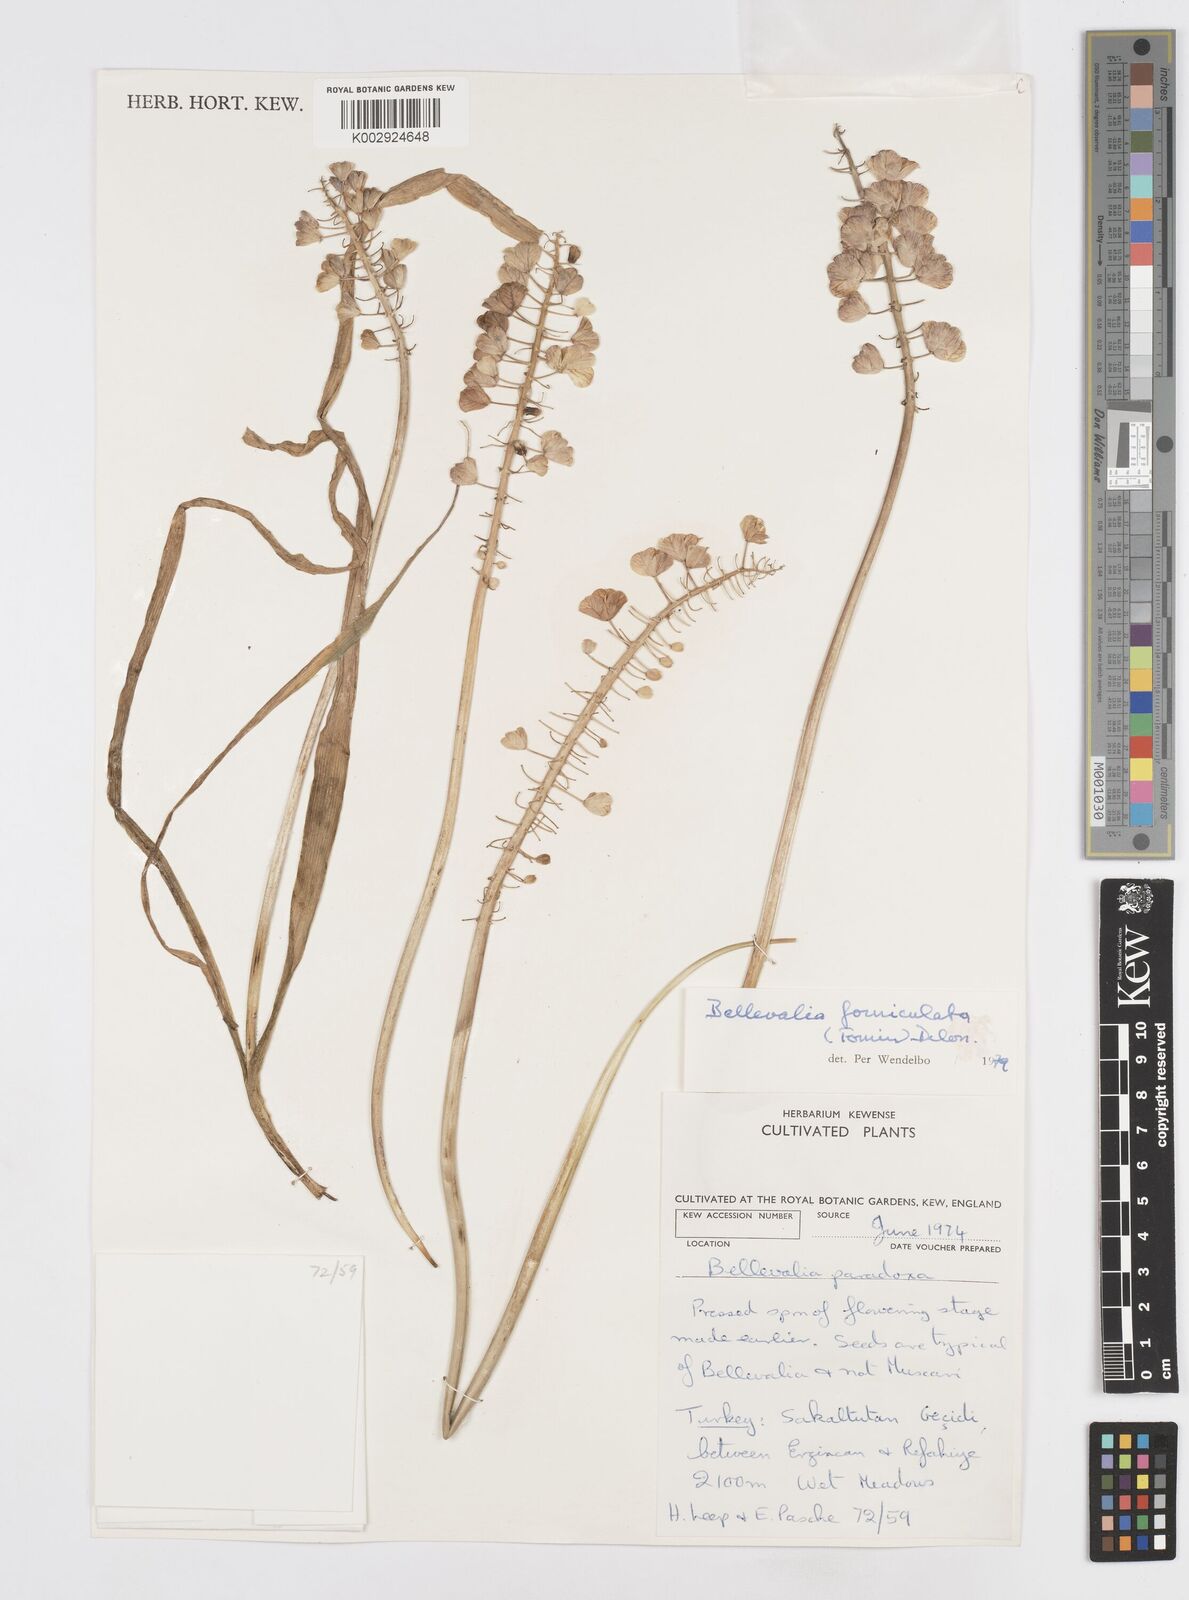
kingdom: Plantae
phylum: Tracheophyta
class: Liliopsida
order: Asparagales
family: Asparagaceae
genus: Muscari
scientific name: Muscari forniculatum
